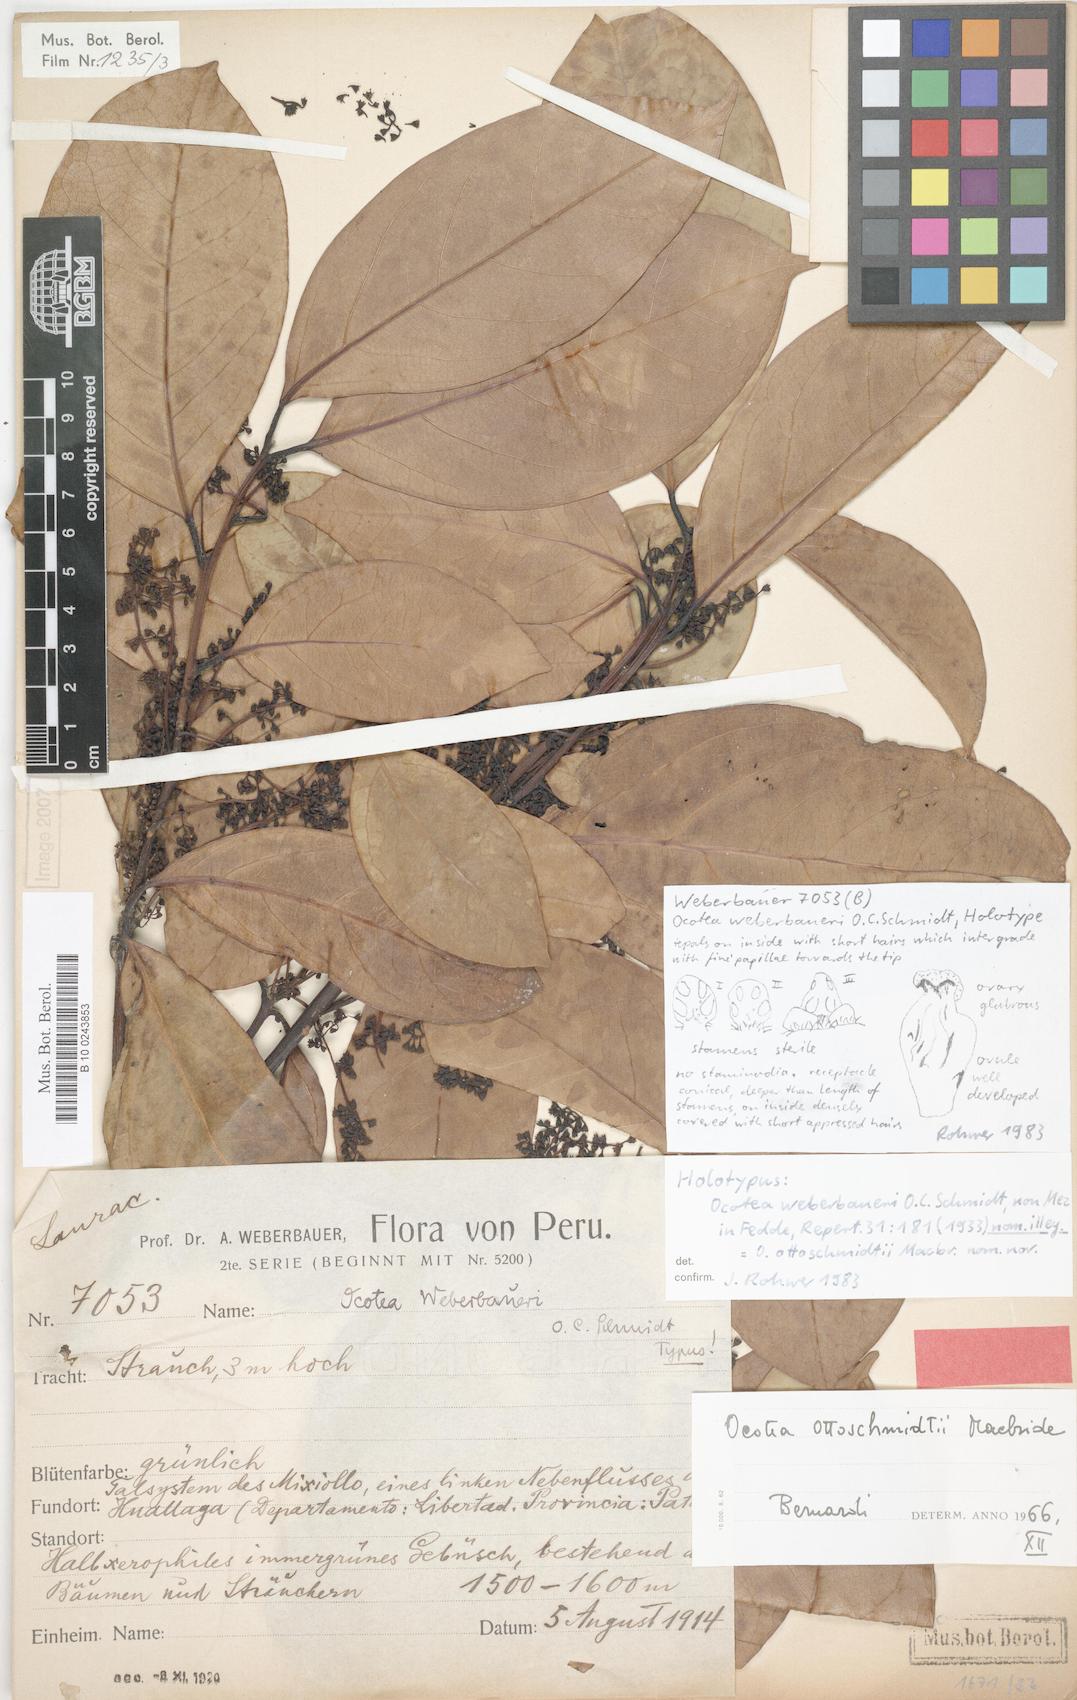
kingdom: Plantae
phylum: Tracheophyta
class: Magnoliopsida
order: Laurales
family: Lauraceae
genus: Ocotea
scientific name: Ocotea ottoschmidtii
